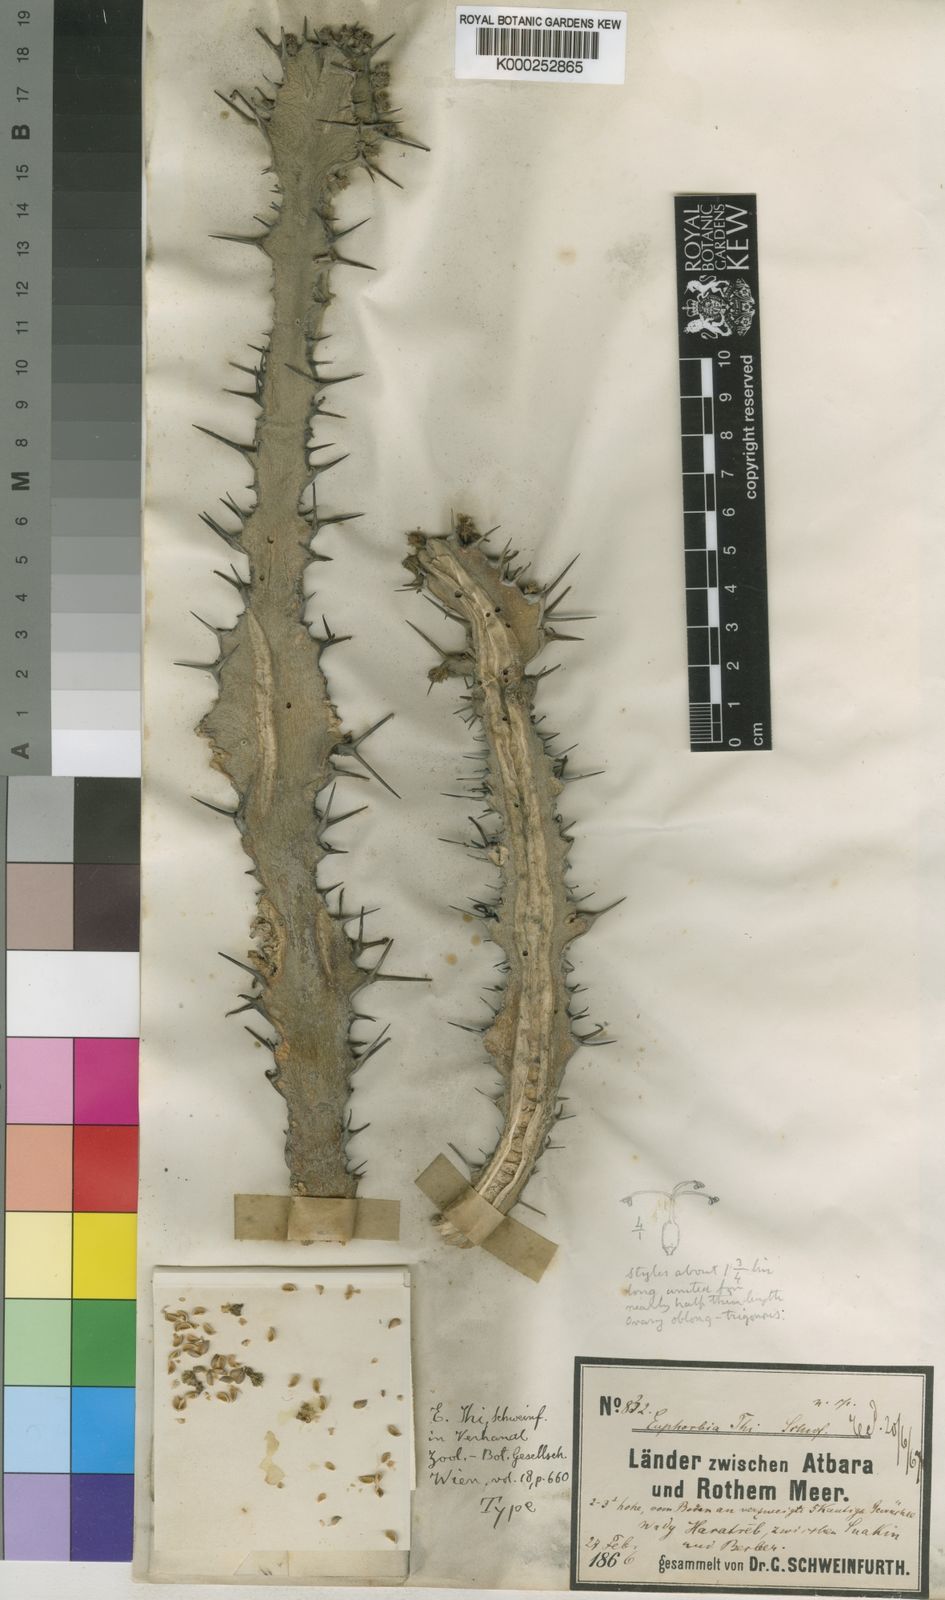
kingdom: Plantae
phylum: Tracheophyta
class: Magnoliopsida
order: Malpighiales
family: Euphorbiaceae
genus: Euphorbia
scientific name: Euphorbia polyacantha
